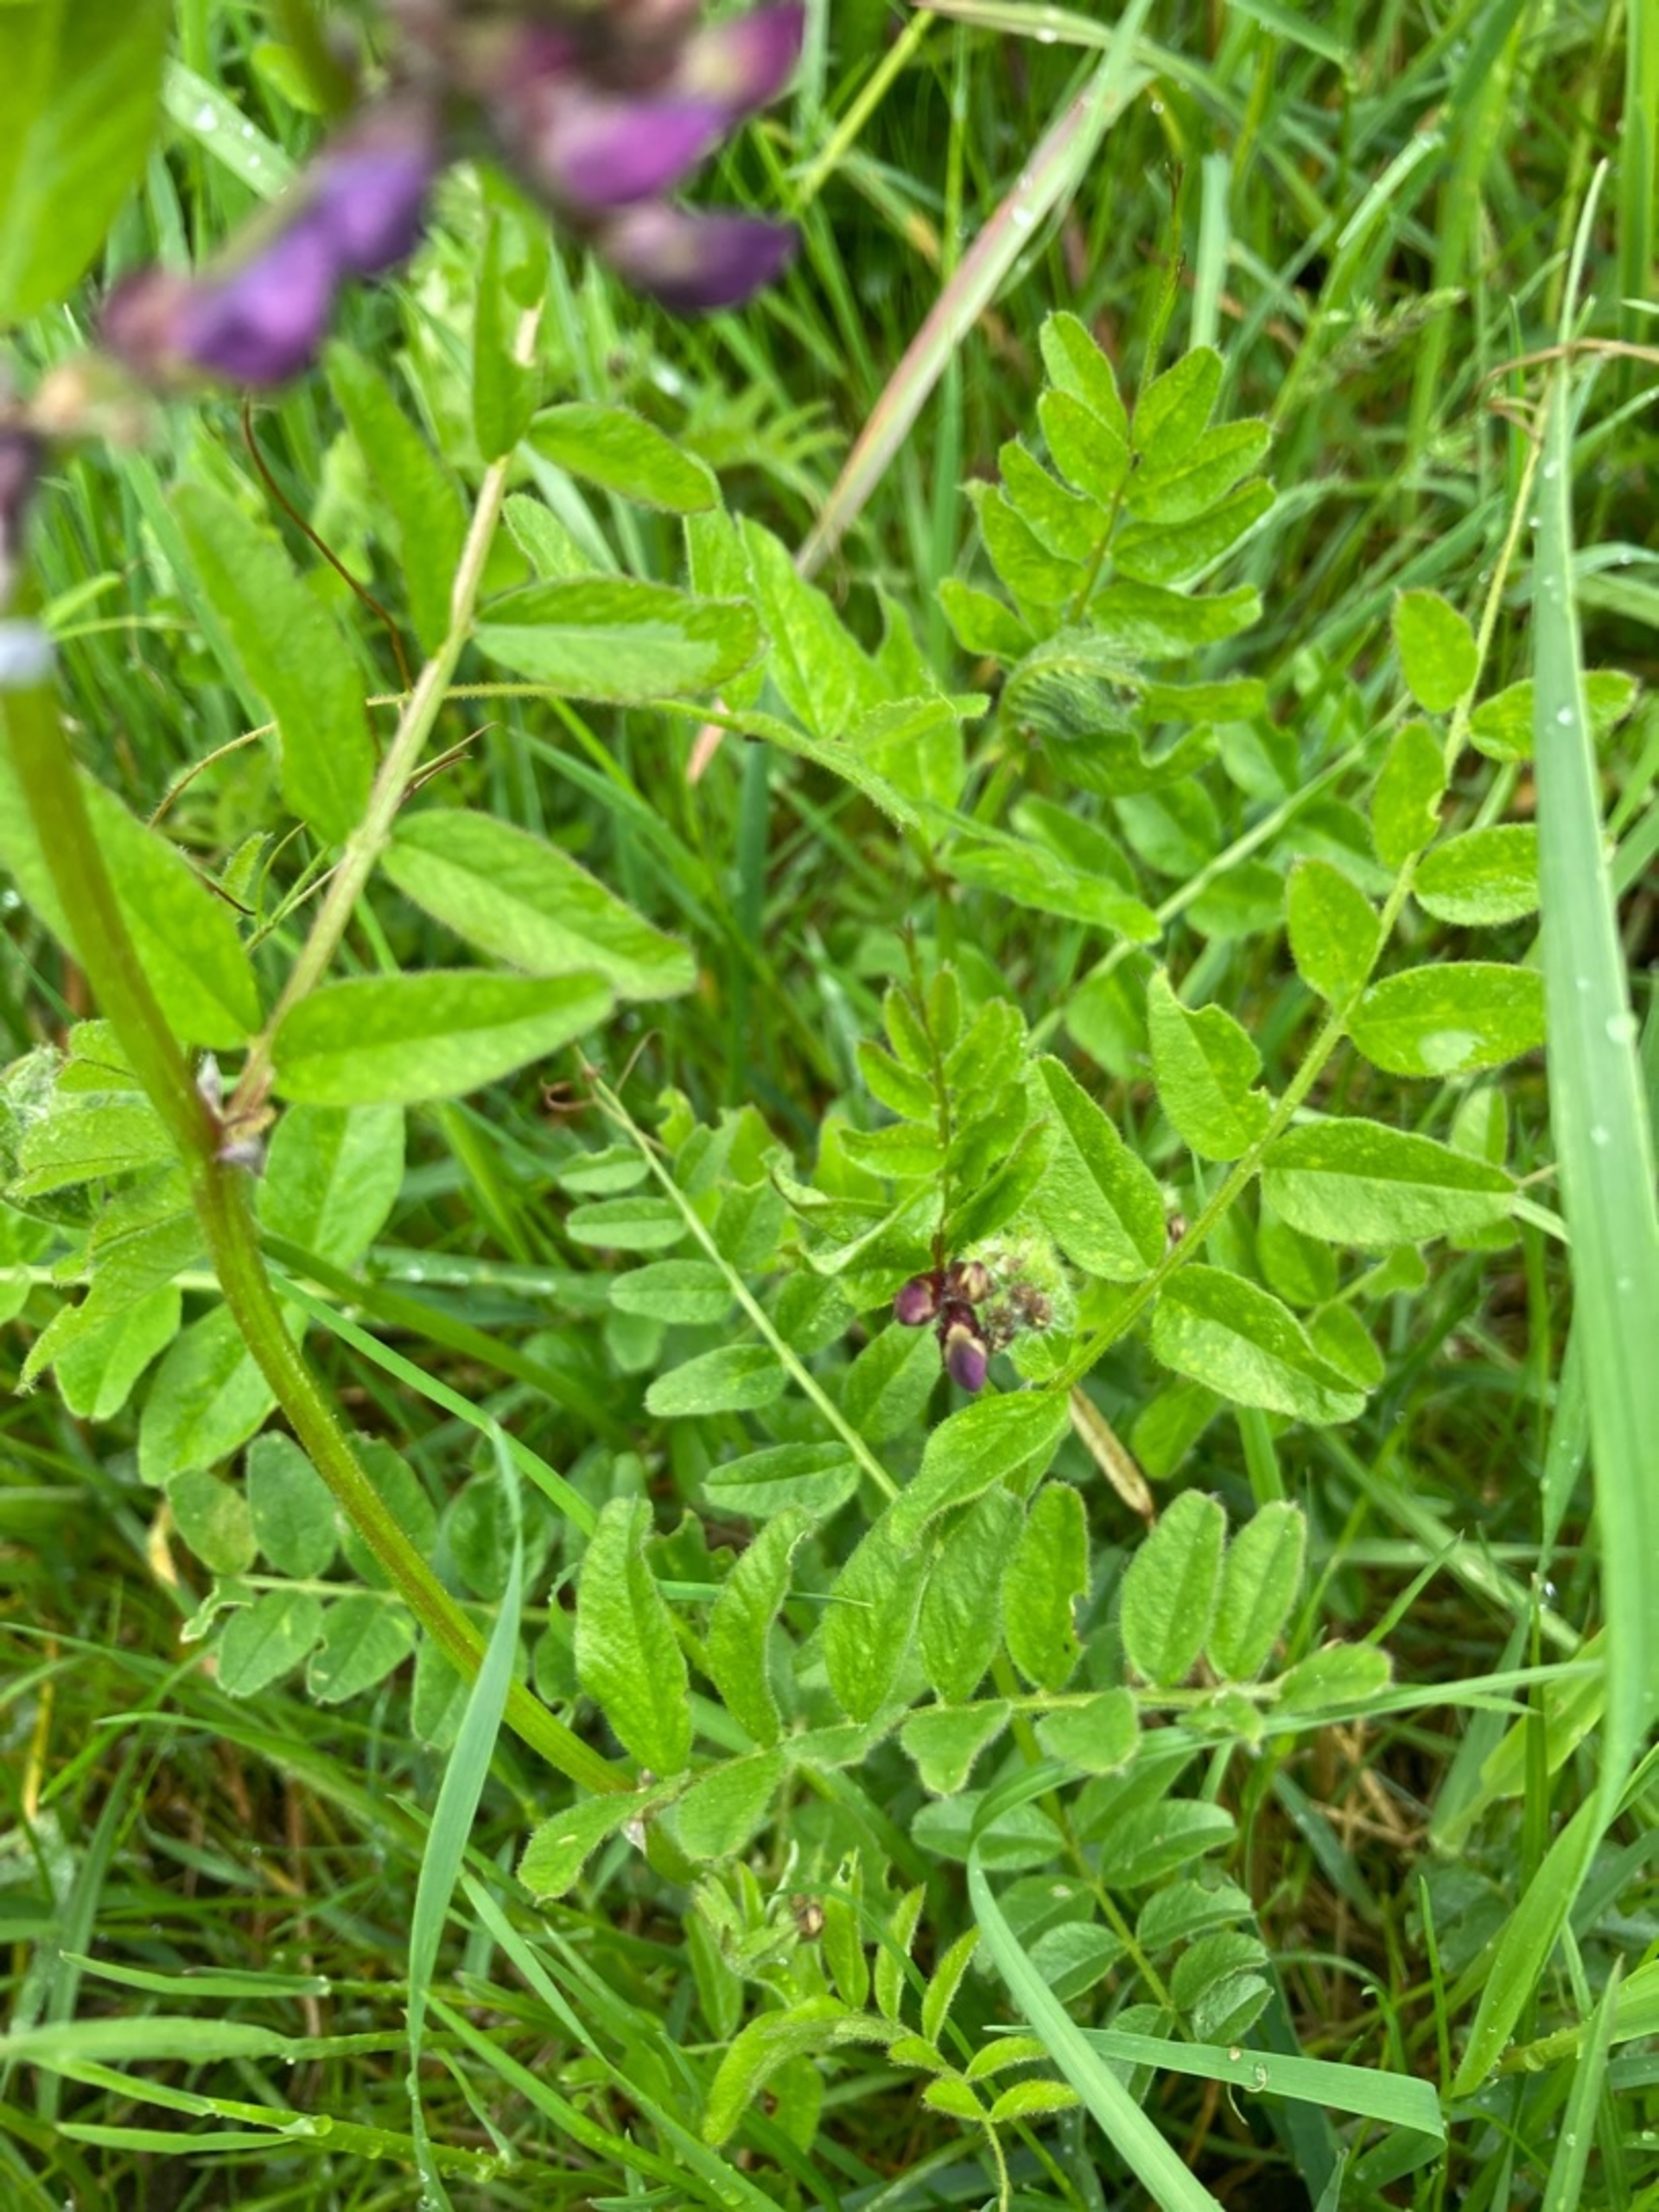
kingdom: Plantae
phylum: Tracheophyta
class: Magnoliopsida
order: Fabales
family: Fabaceae
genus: Vicia
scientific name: Vicia sepium
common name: Gærde-vikke
